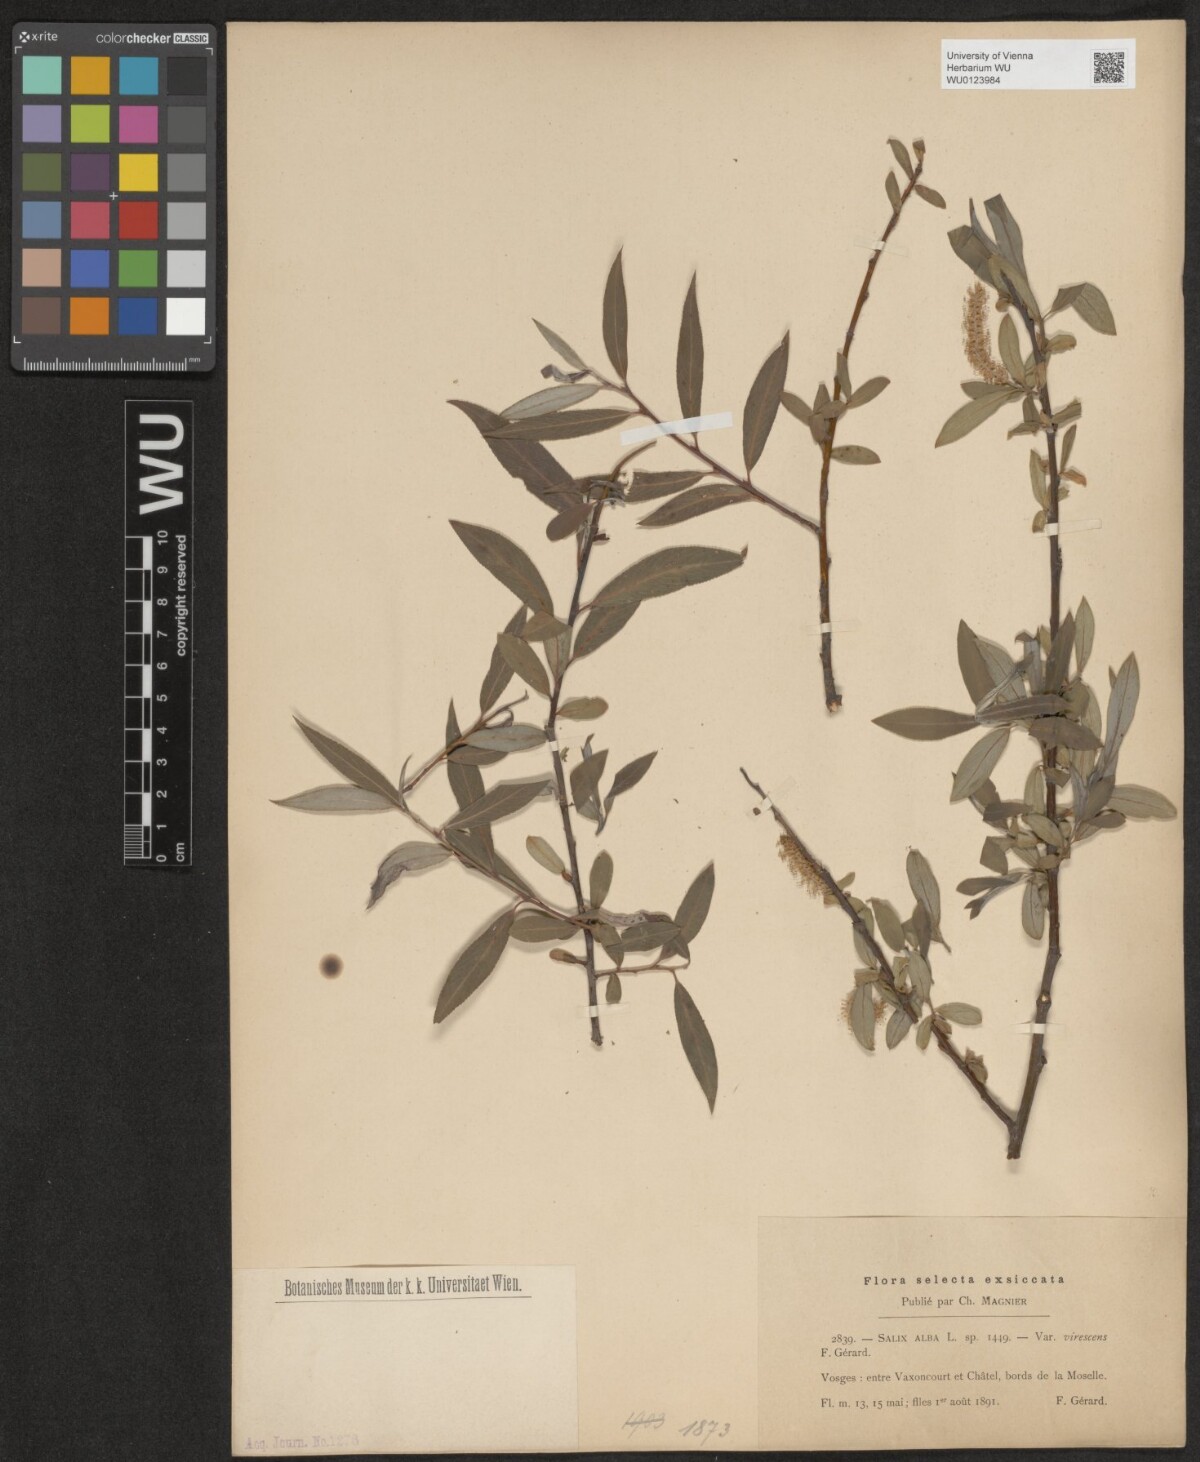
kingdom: Plantae
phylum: Tracheophyta
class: Magnoliopsida
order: Malpighiales
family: Salicaceae
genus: Salix
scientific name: Salix alba
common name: White willow
